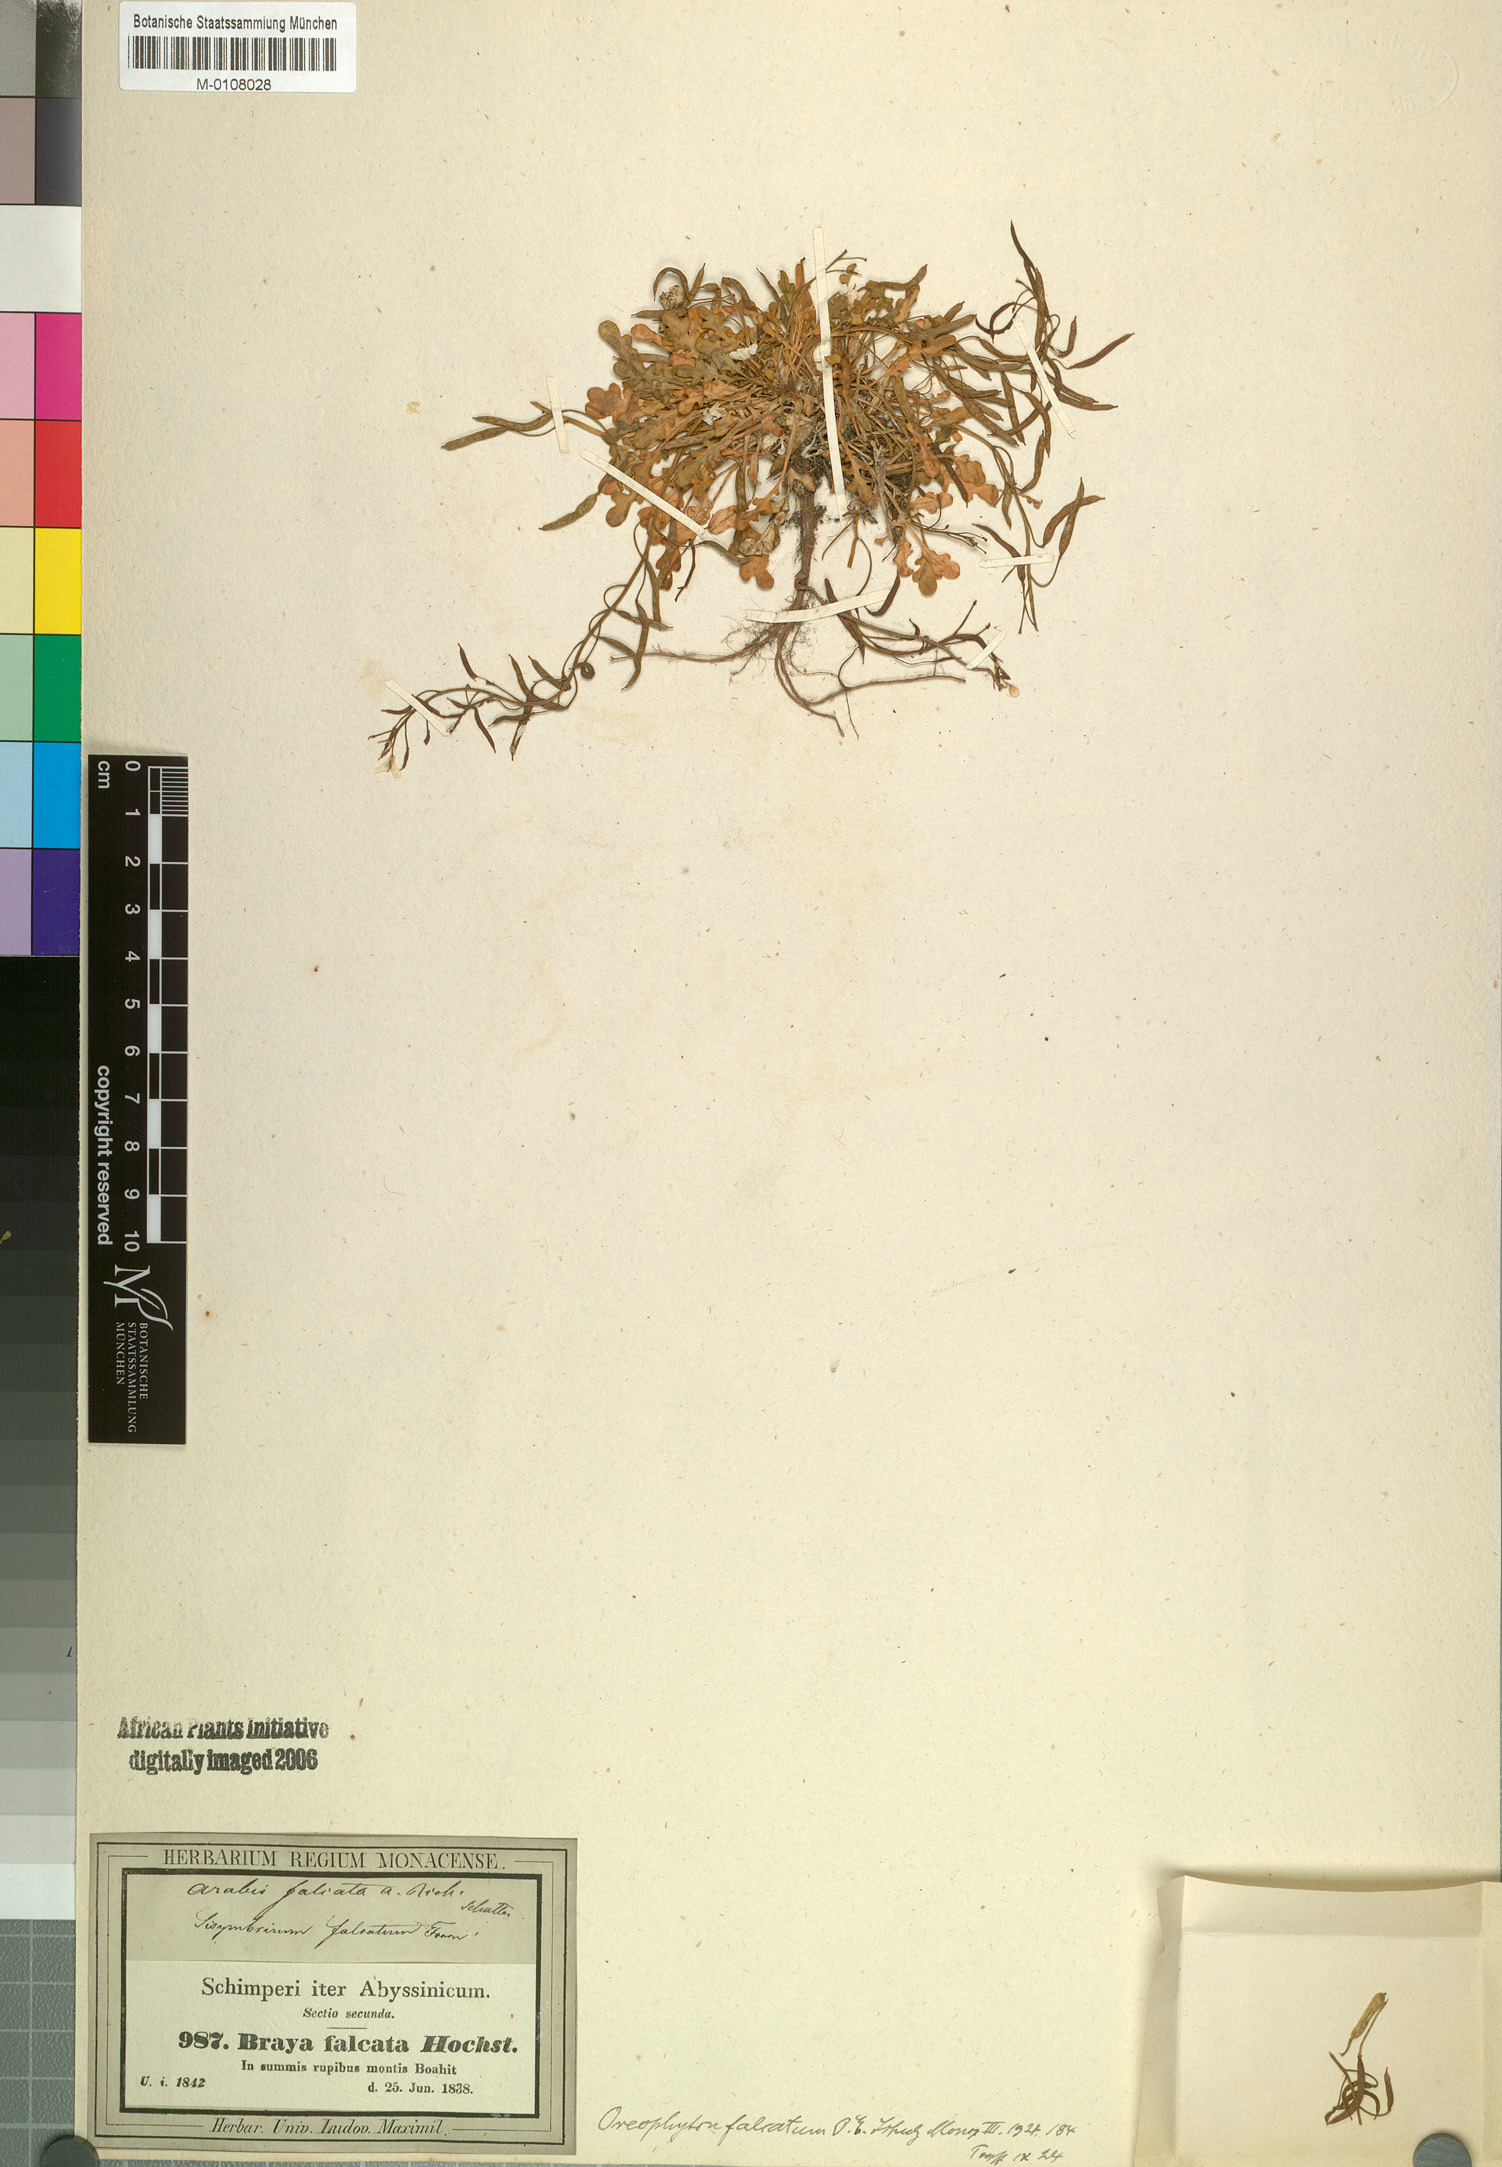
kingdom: Plantae
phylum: Tracheophyta
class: Magnoliopsida
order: Brassicales
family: Brassicaceae
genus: Oreophyton
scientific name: Oreophyton falcatum
